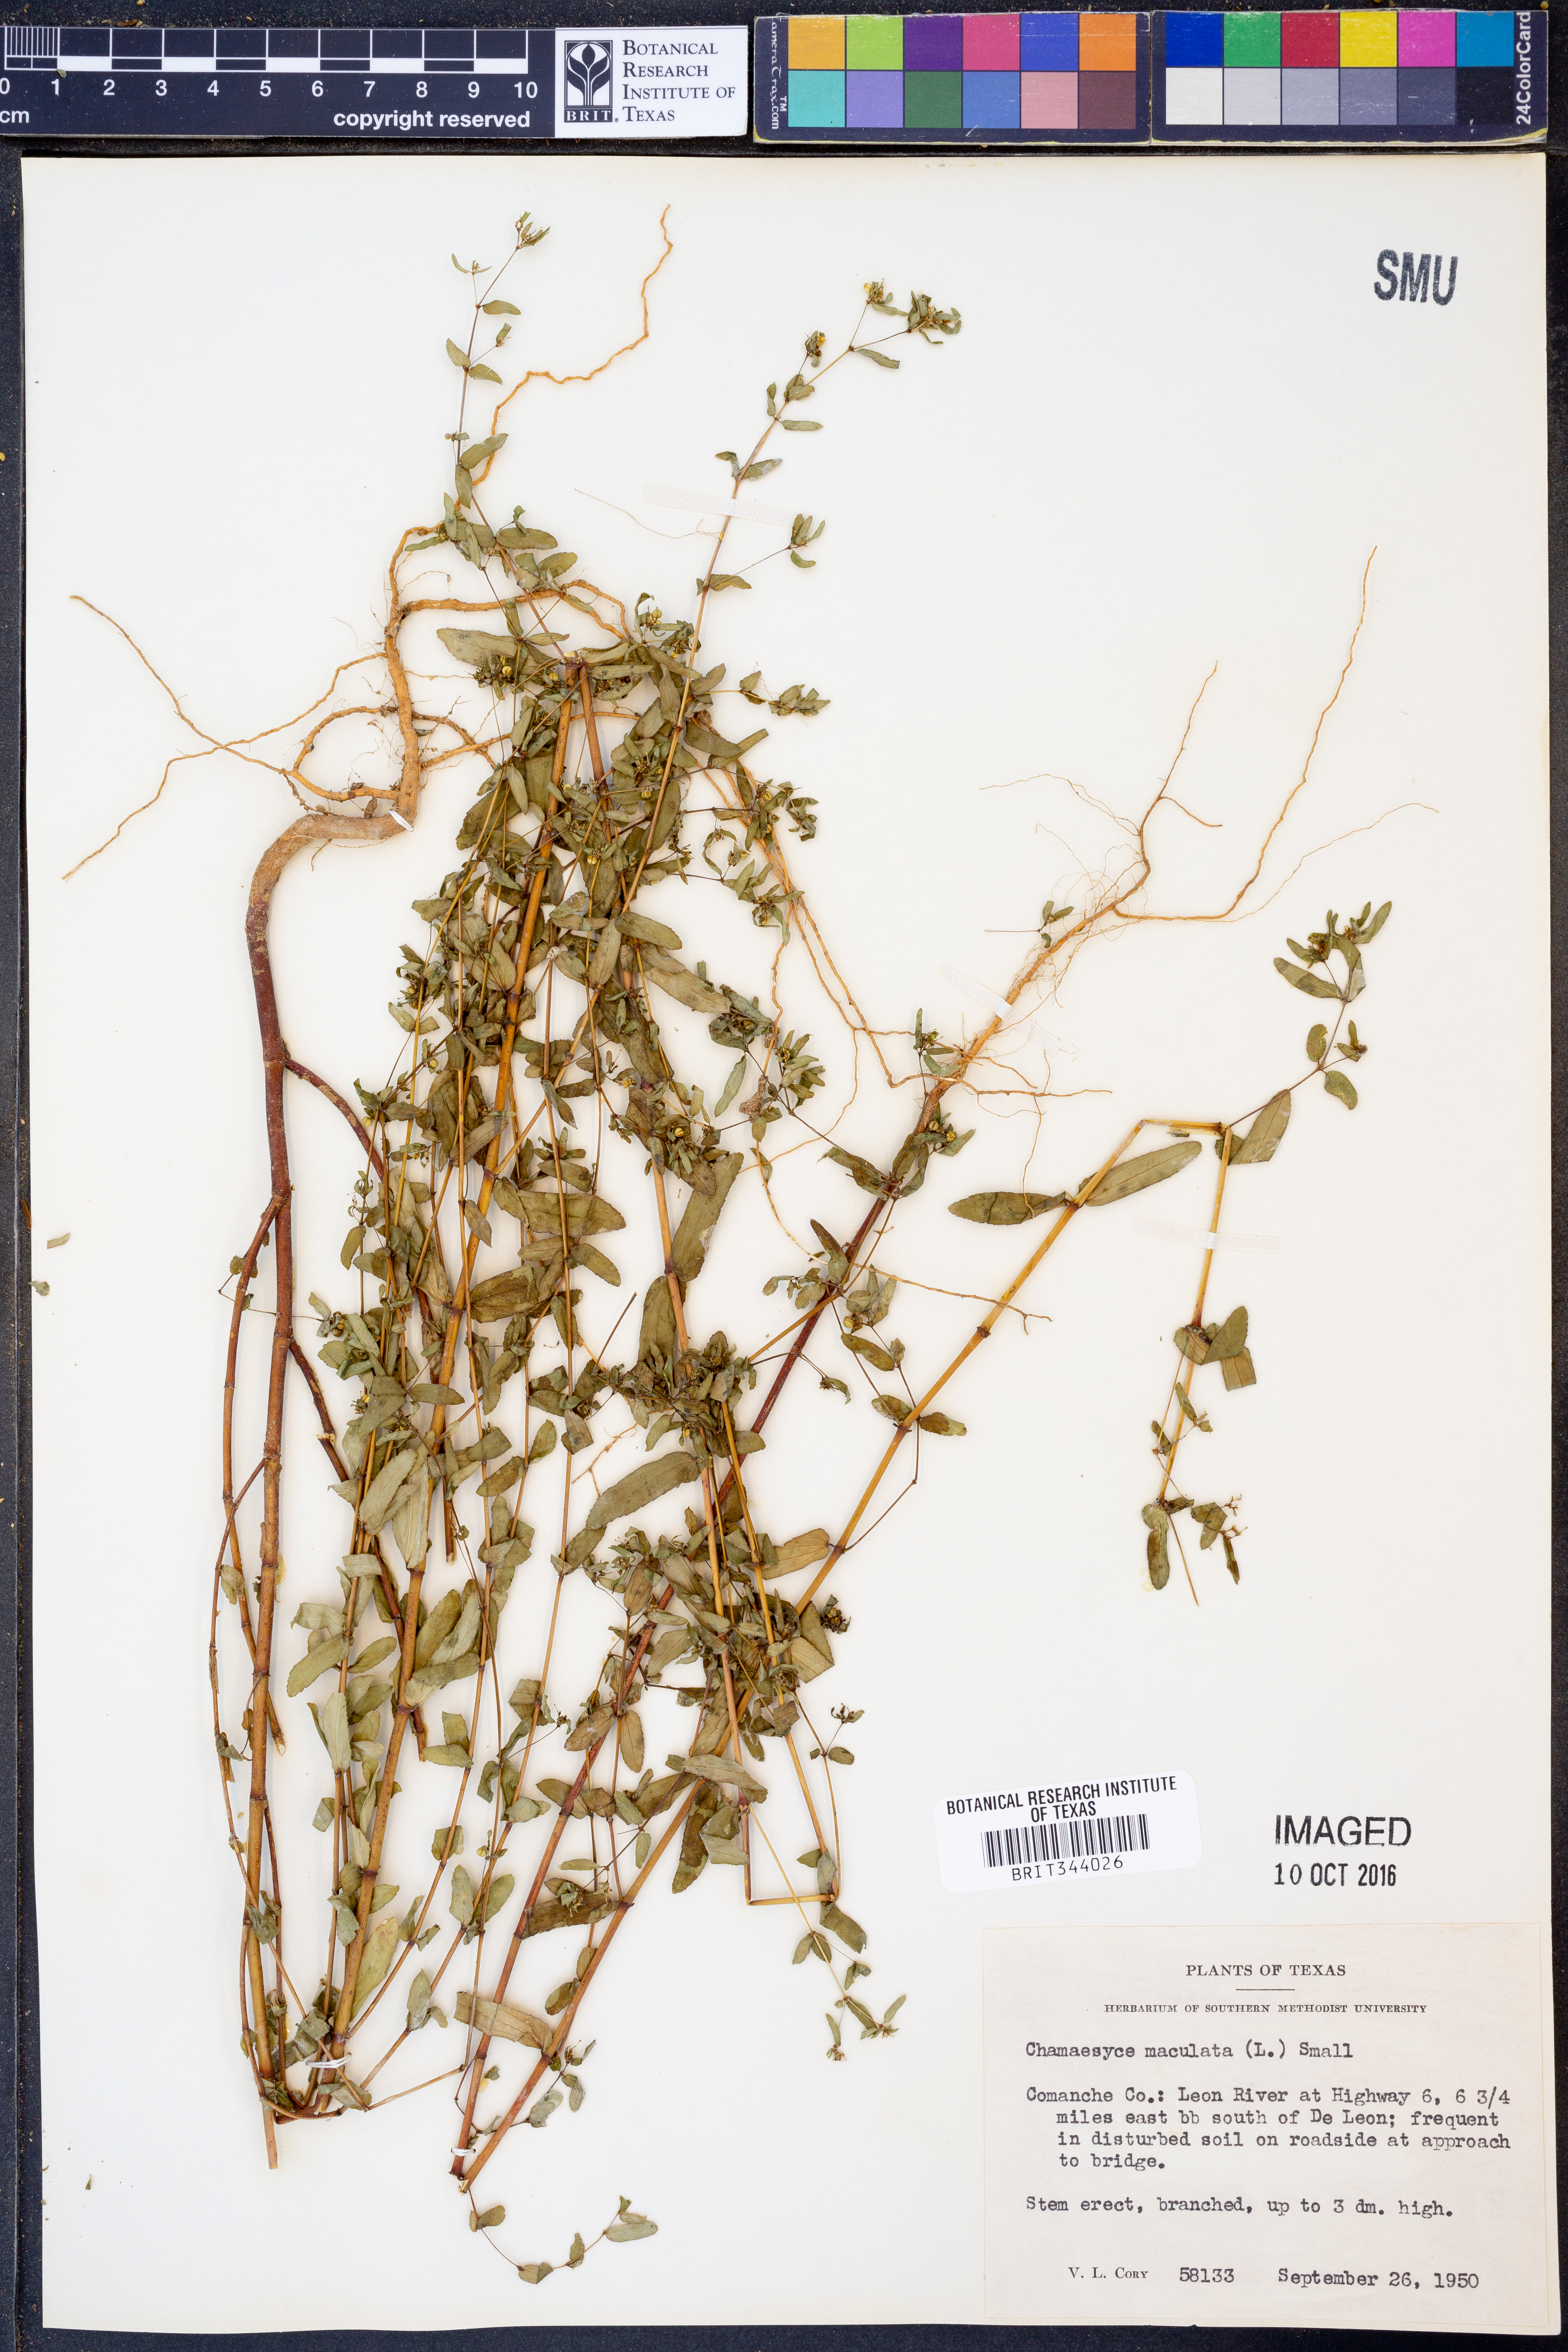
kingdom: Plantae
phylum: Tracheophyta
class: Magnoliopsida
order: Malpighiales
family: Euphorbiaceae
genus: Euphorbia
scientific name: Euphorbia maculata
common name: Spotted spurge
